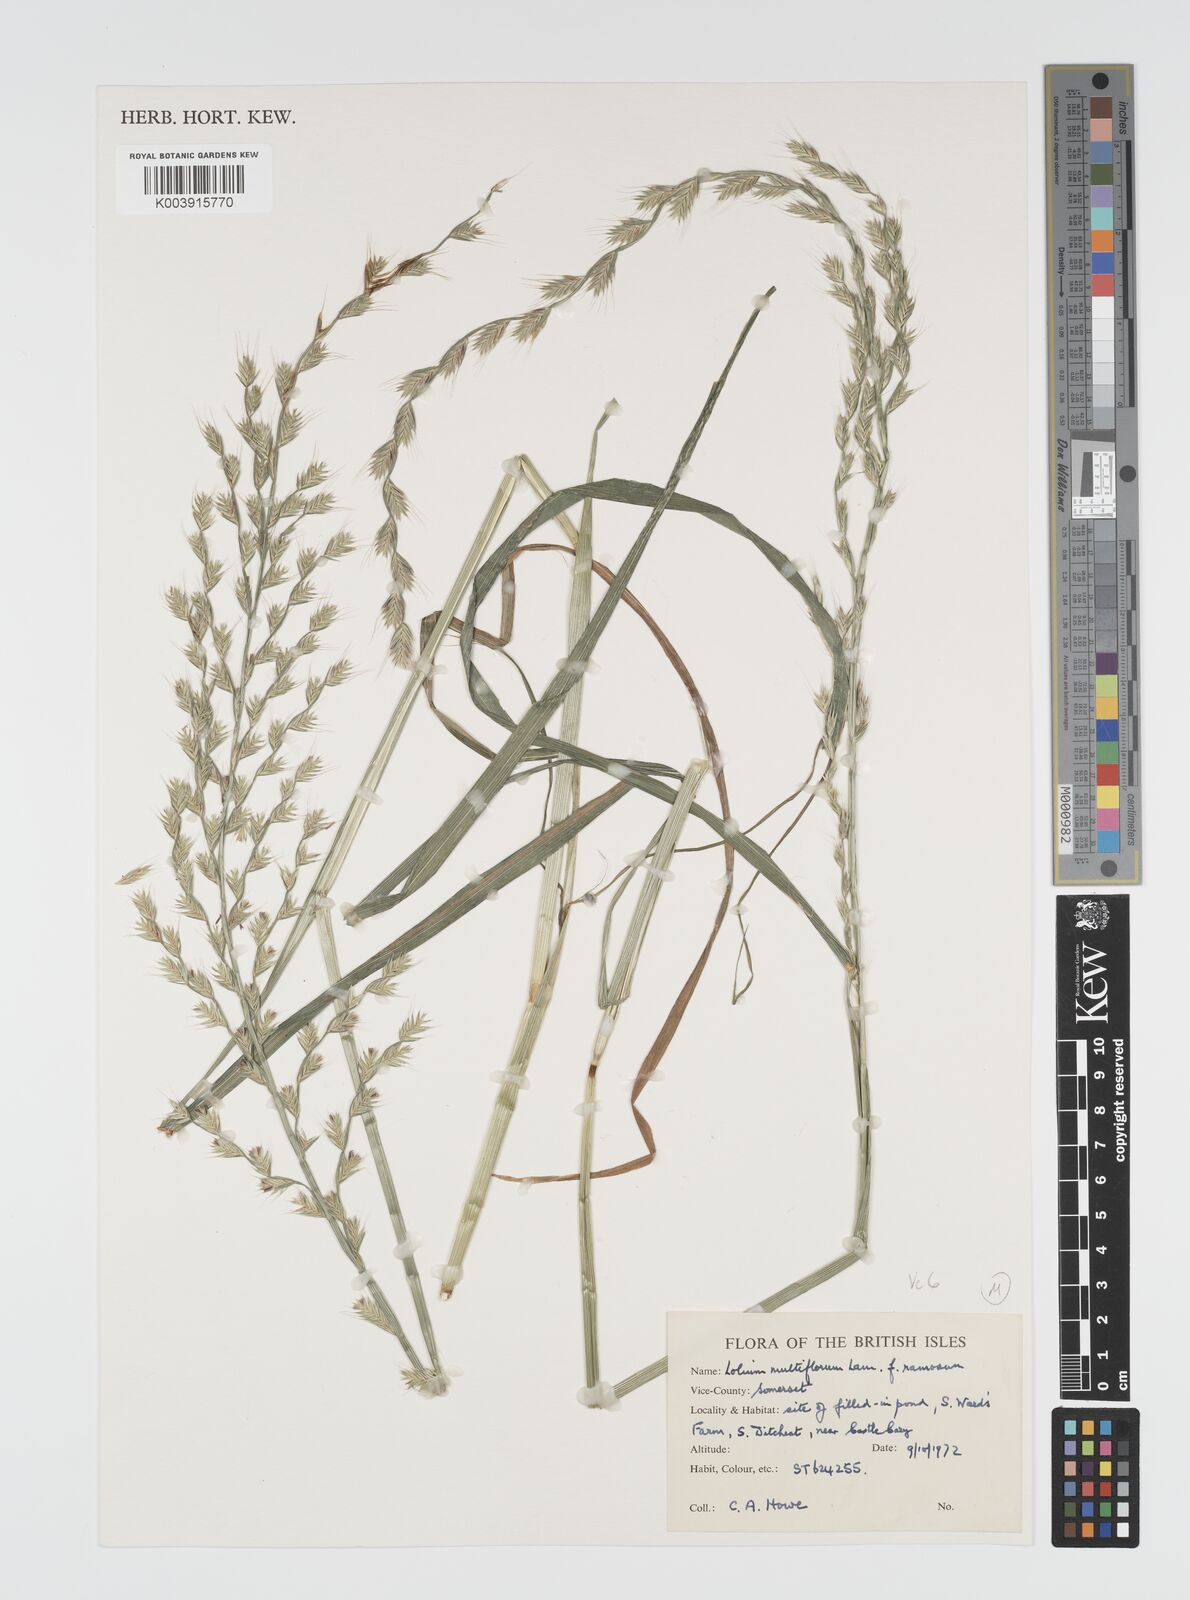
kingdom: Plantae
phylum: Tracheophyta
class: Liliopsida
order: Poales
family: Poaceae
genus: Lolium
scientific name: Lolium multiflorum
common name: Annual ryegrass
